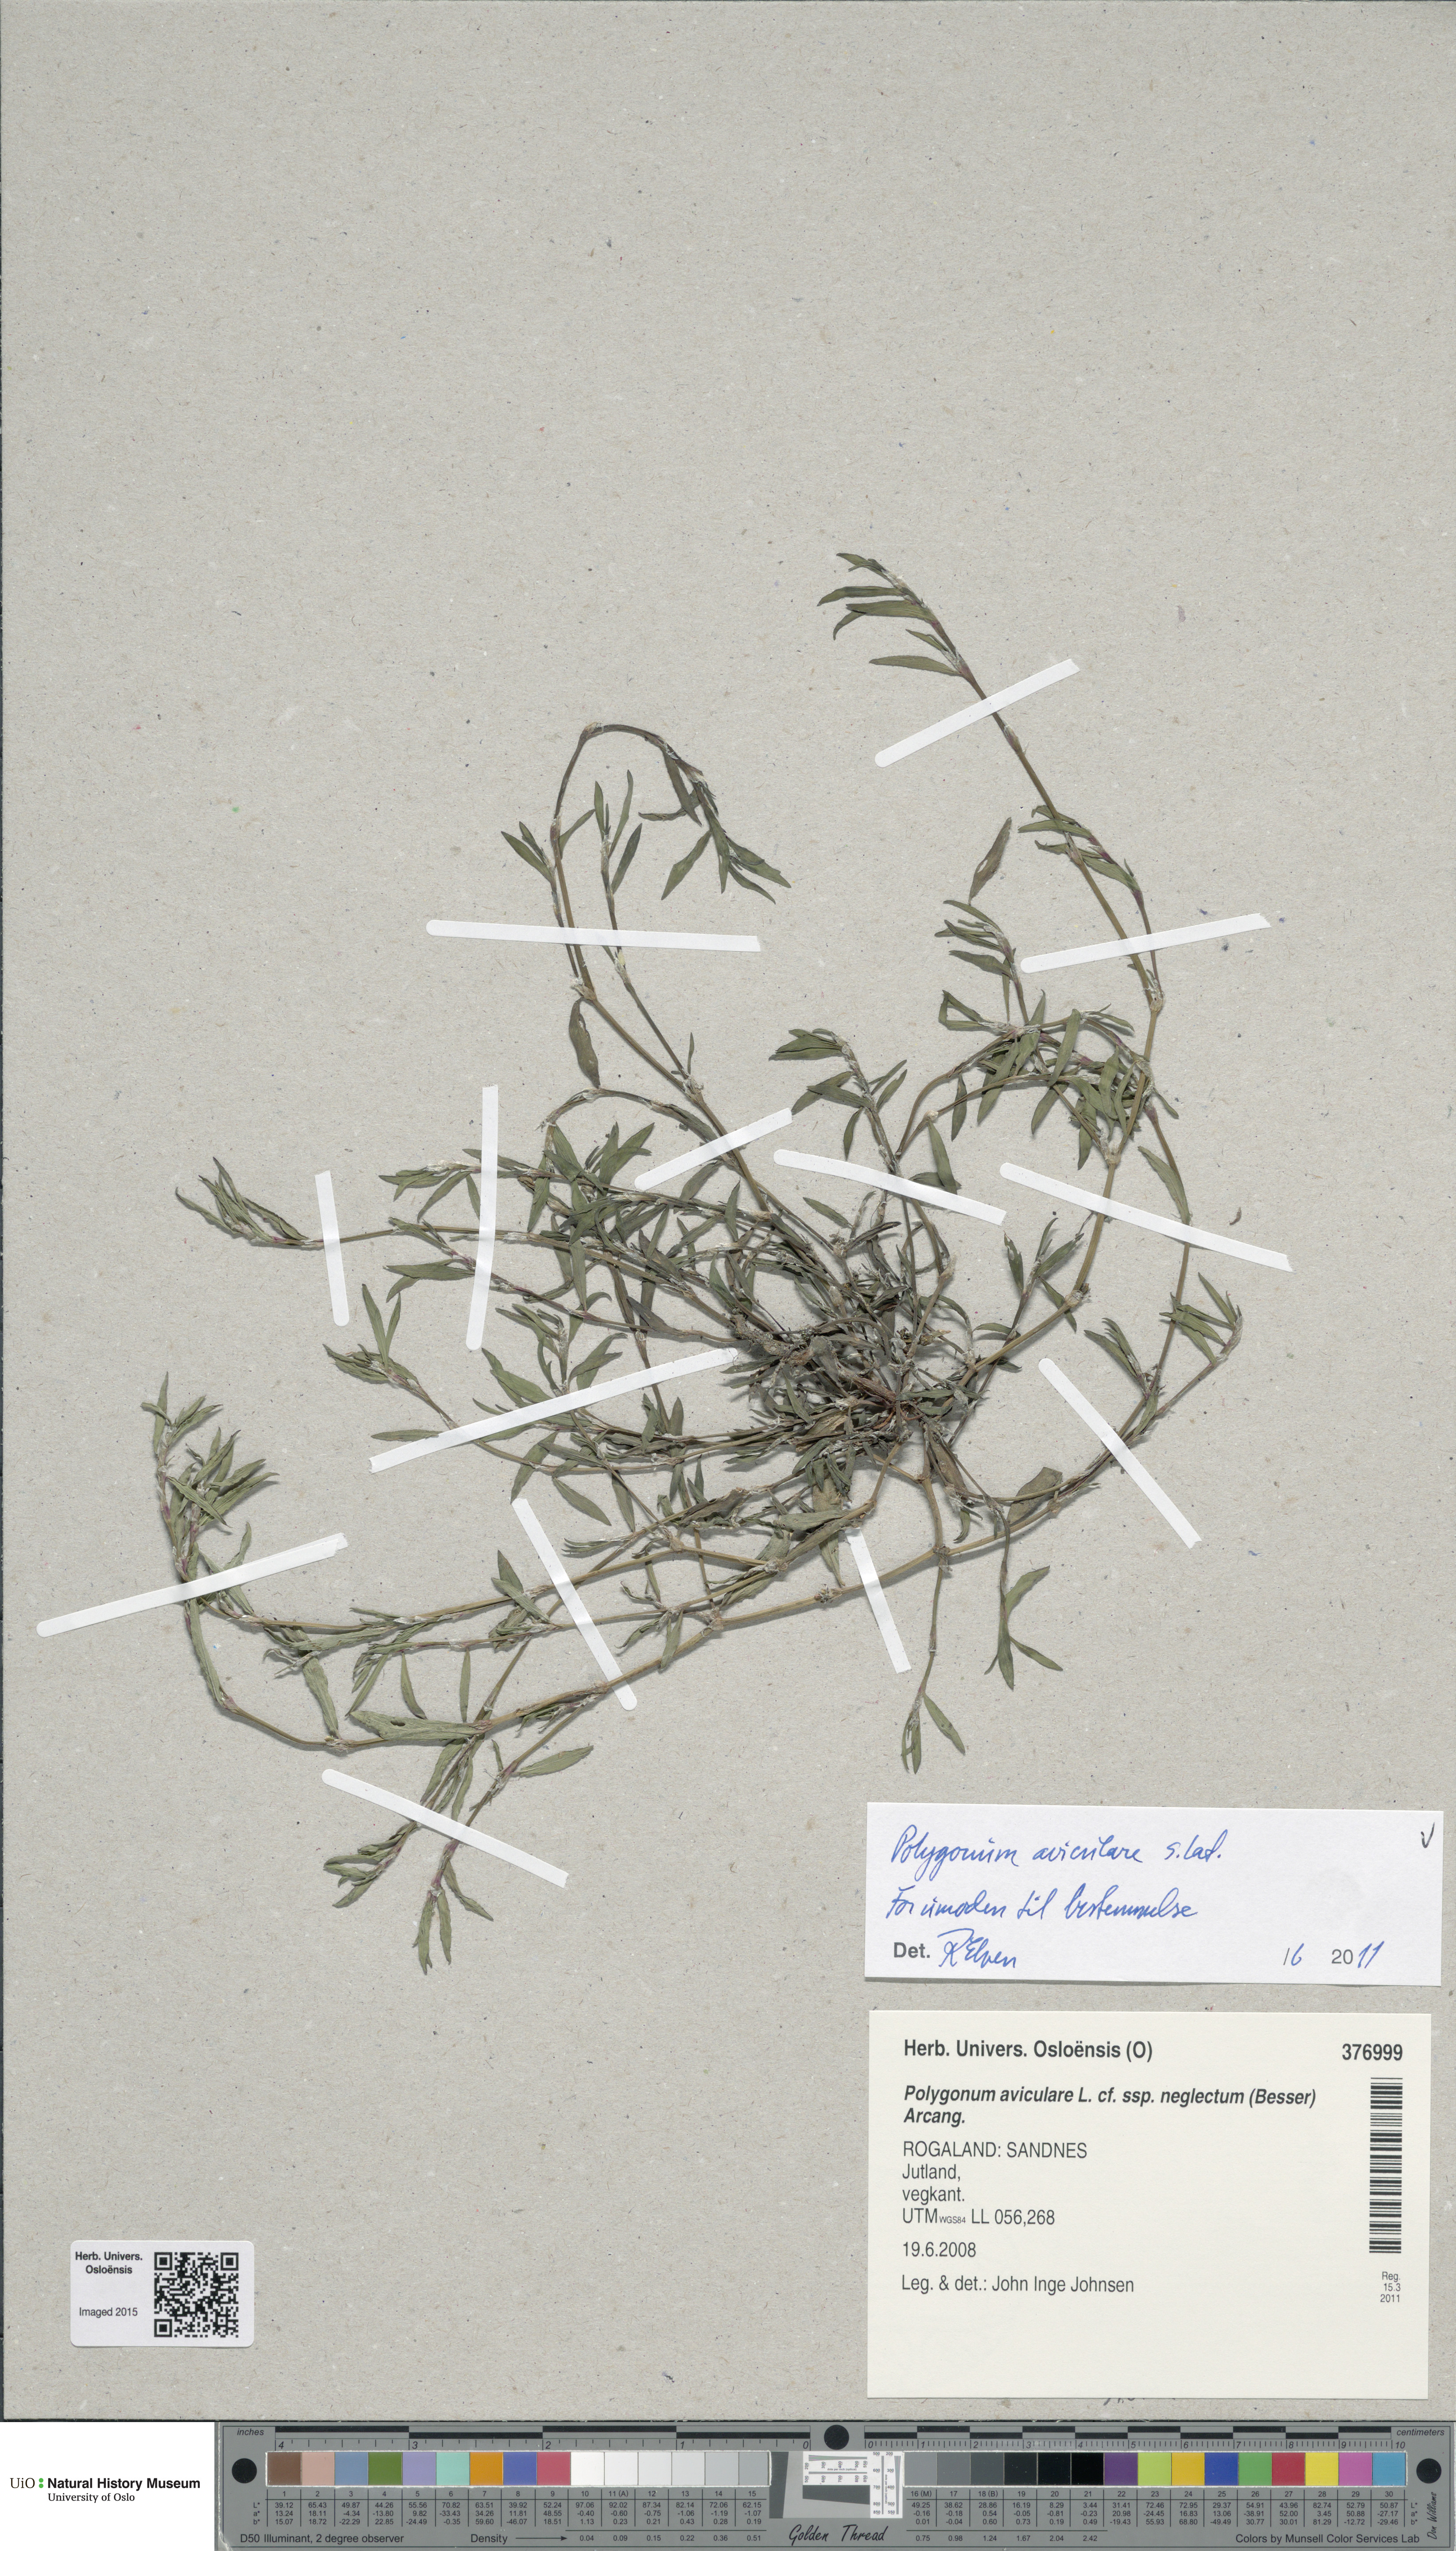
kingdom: Plantae
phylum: Tracheophyta
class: Magnoliopsida
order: Caryophyllales
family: Polygonaceae
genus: Polygonum
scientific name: Polygonum aviculare
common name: Prostrate knotweed
